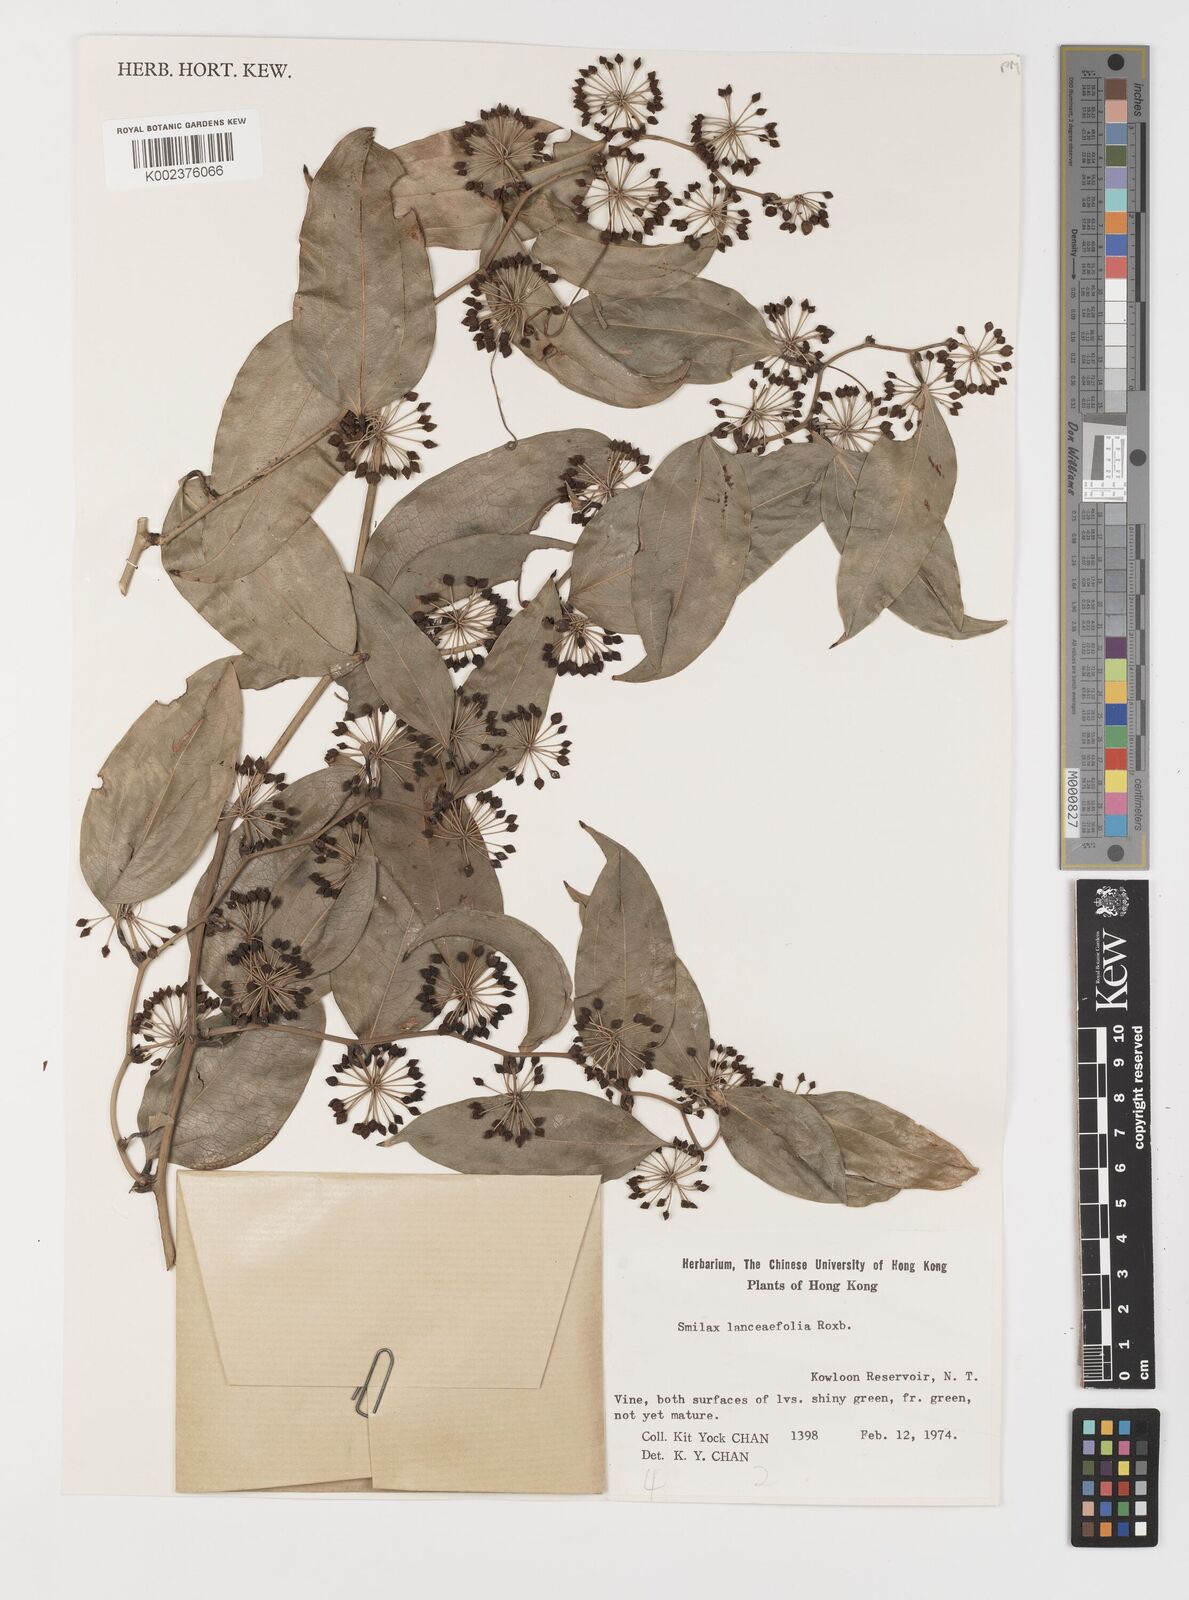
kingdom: Plantae
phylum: Tracheophyta
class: Liliopsida
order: Liliales
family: Smilacaceae
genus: Smilax
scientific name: Smilax lanceifolia
